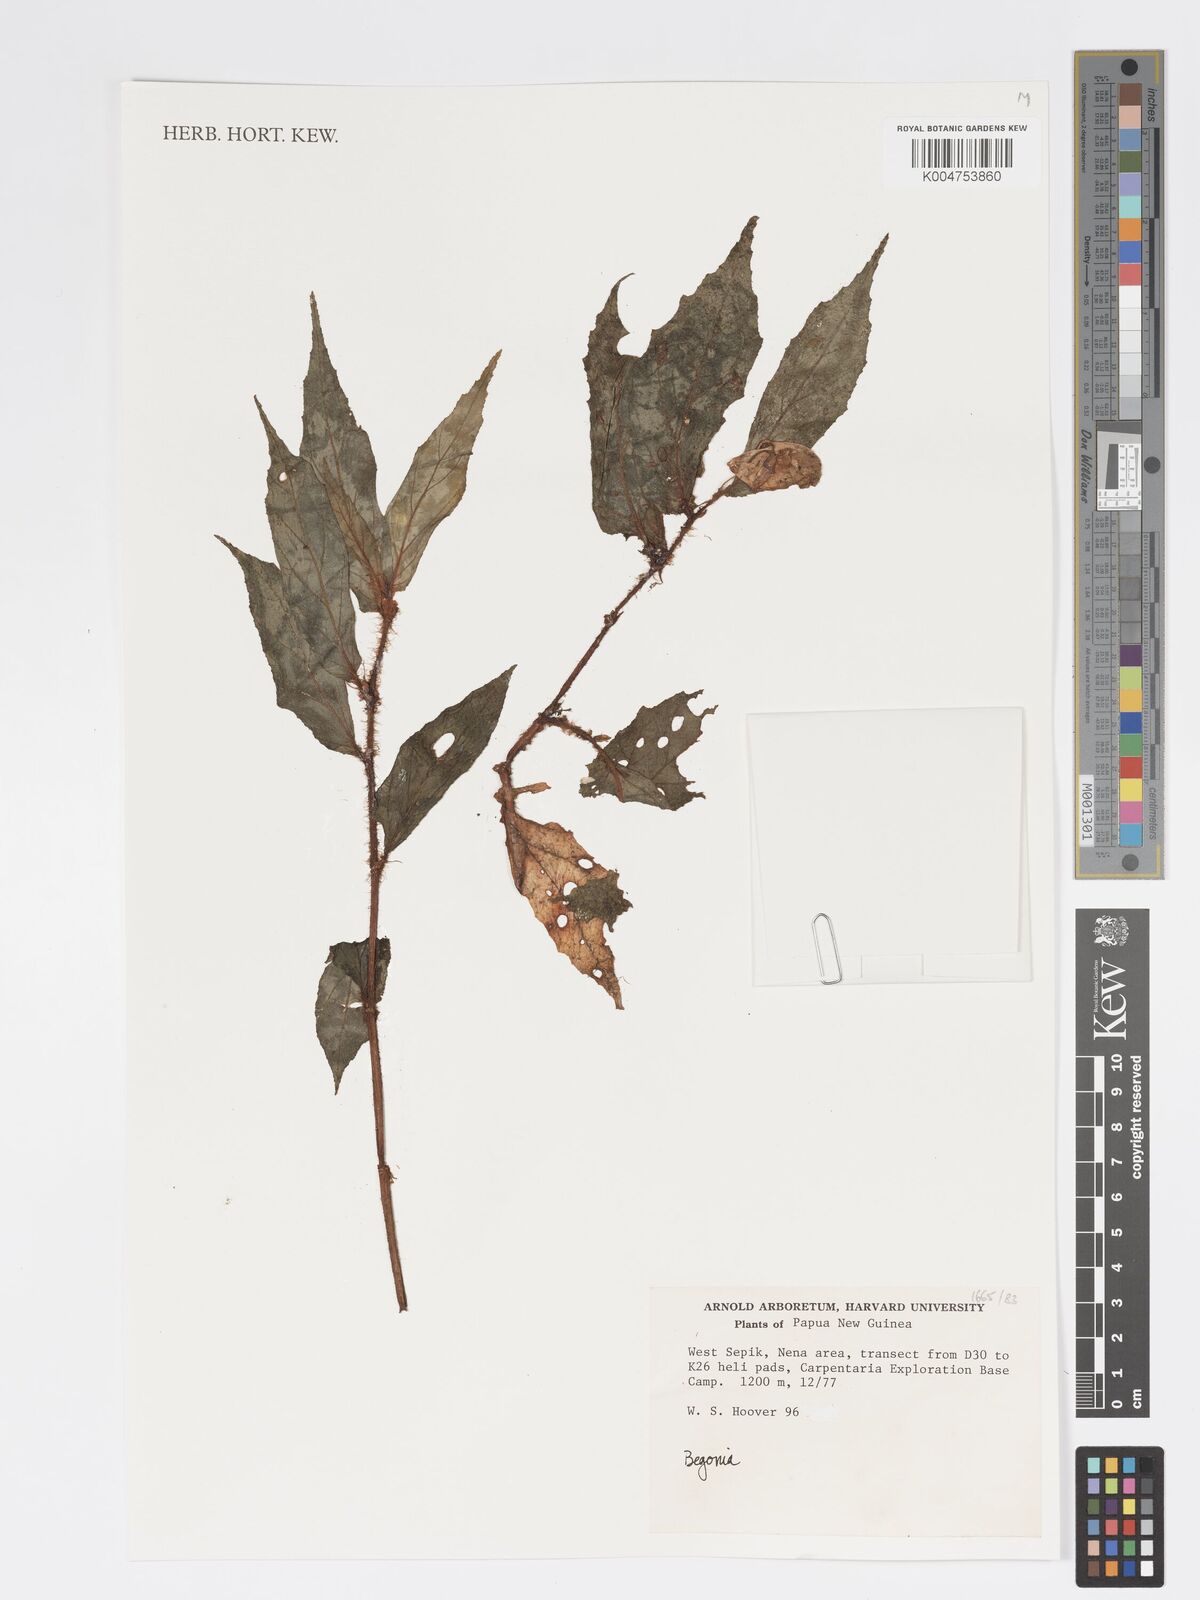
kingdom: Plantae
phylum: Tracheophyta
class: Magnoliopsida
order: Cucurbitales
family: Begoniaceae
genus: Begonia
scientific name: Begonia
